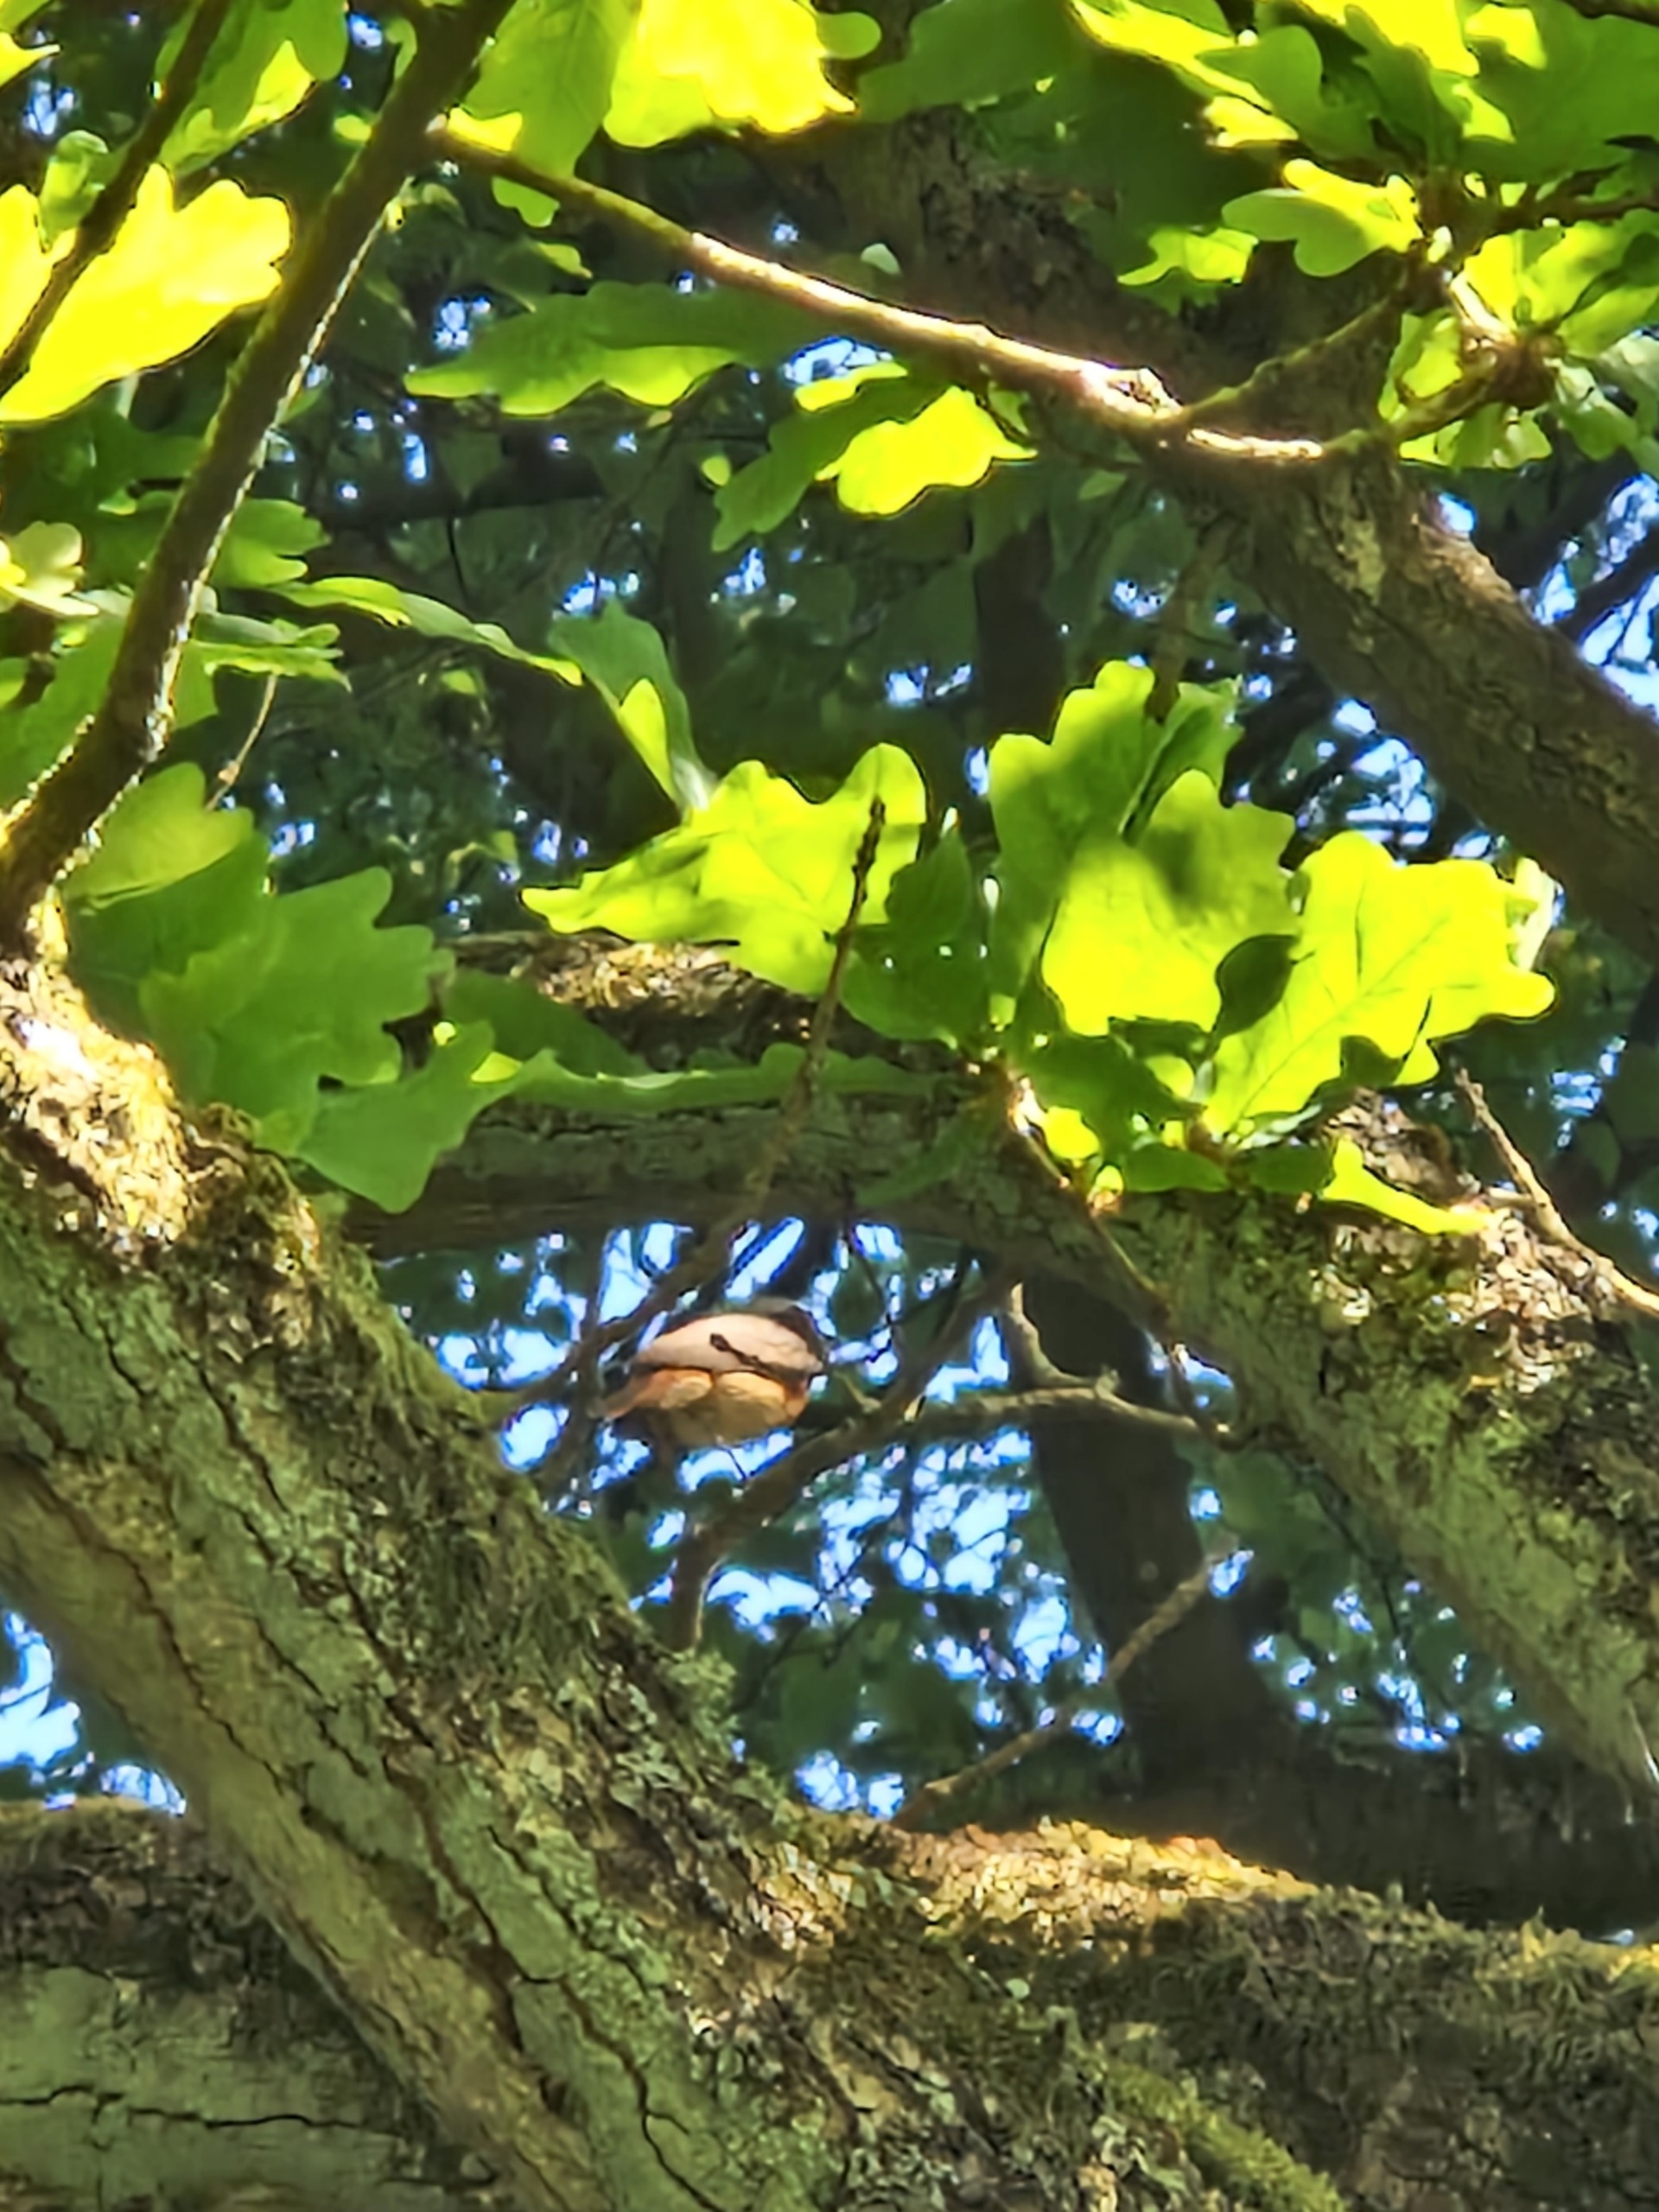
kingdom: Animalia
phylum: Chordata
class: Aves
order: Passeriformes
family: Muscicapidae
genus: Phoenicurus
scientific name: Phoenicurus phoenicurus
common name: Rødstjert
